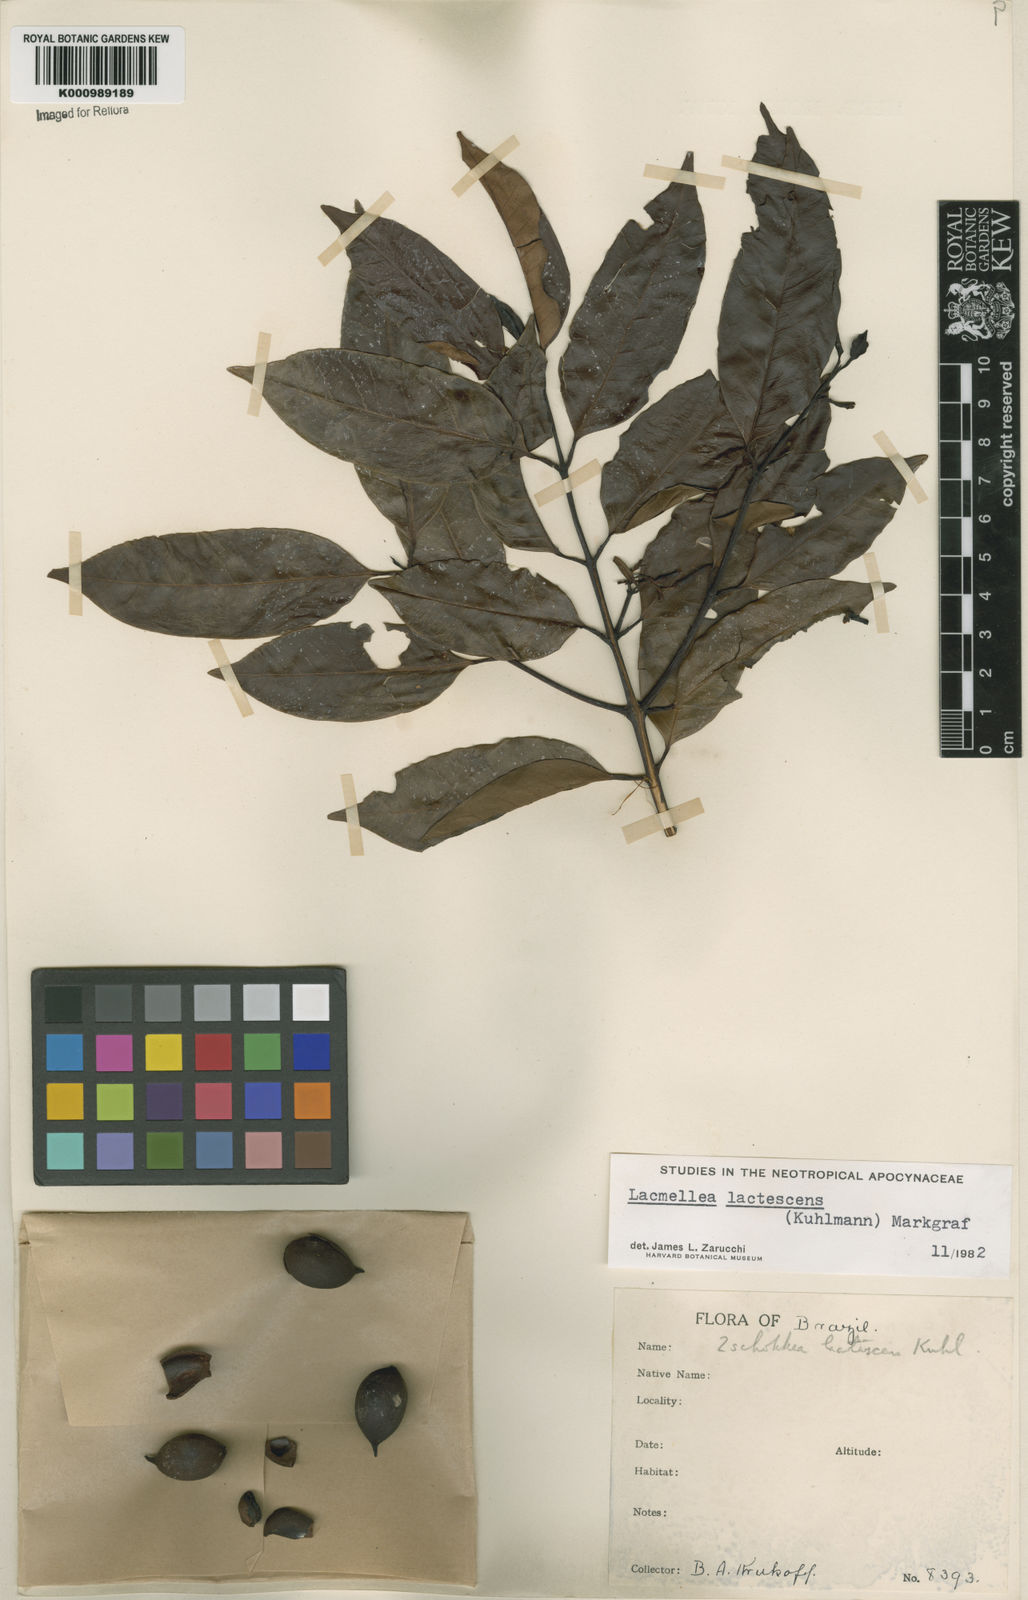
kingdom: Plantae
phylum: Tracheophyta
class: Magnoliopsida
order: Gentianales
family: Apocynaceae
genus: Lacmellea
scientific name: Lacmellea
